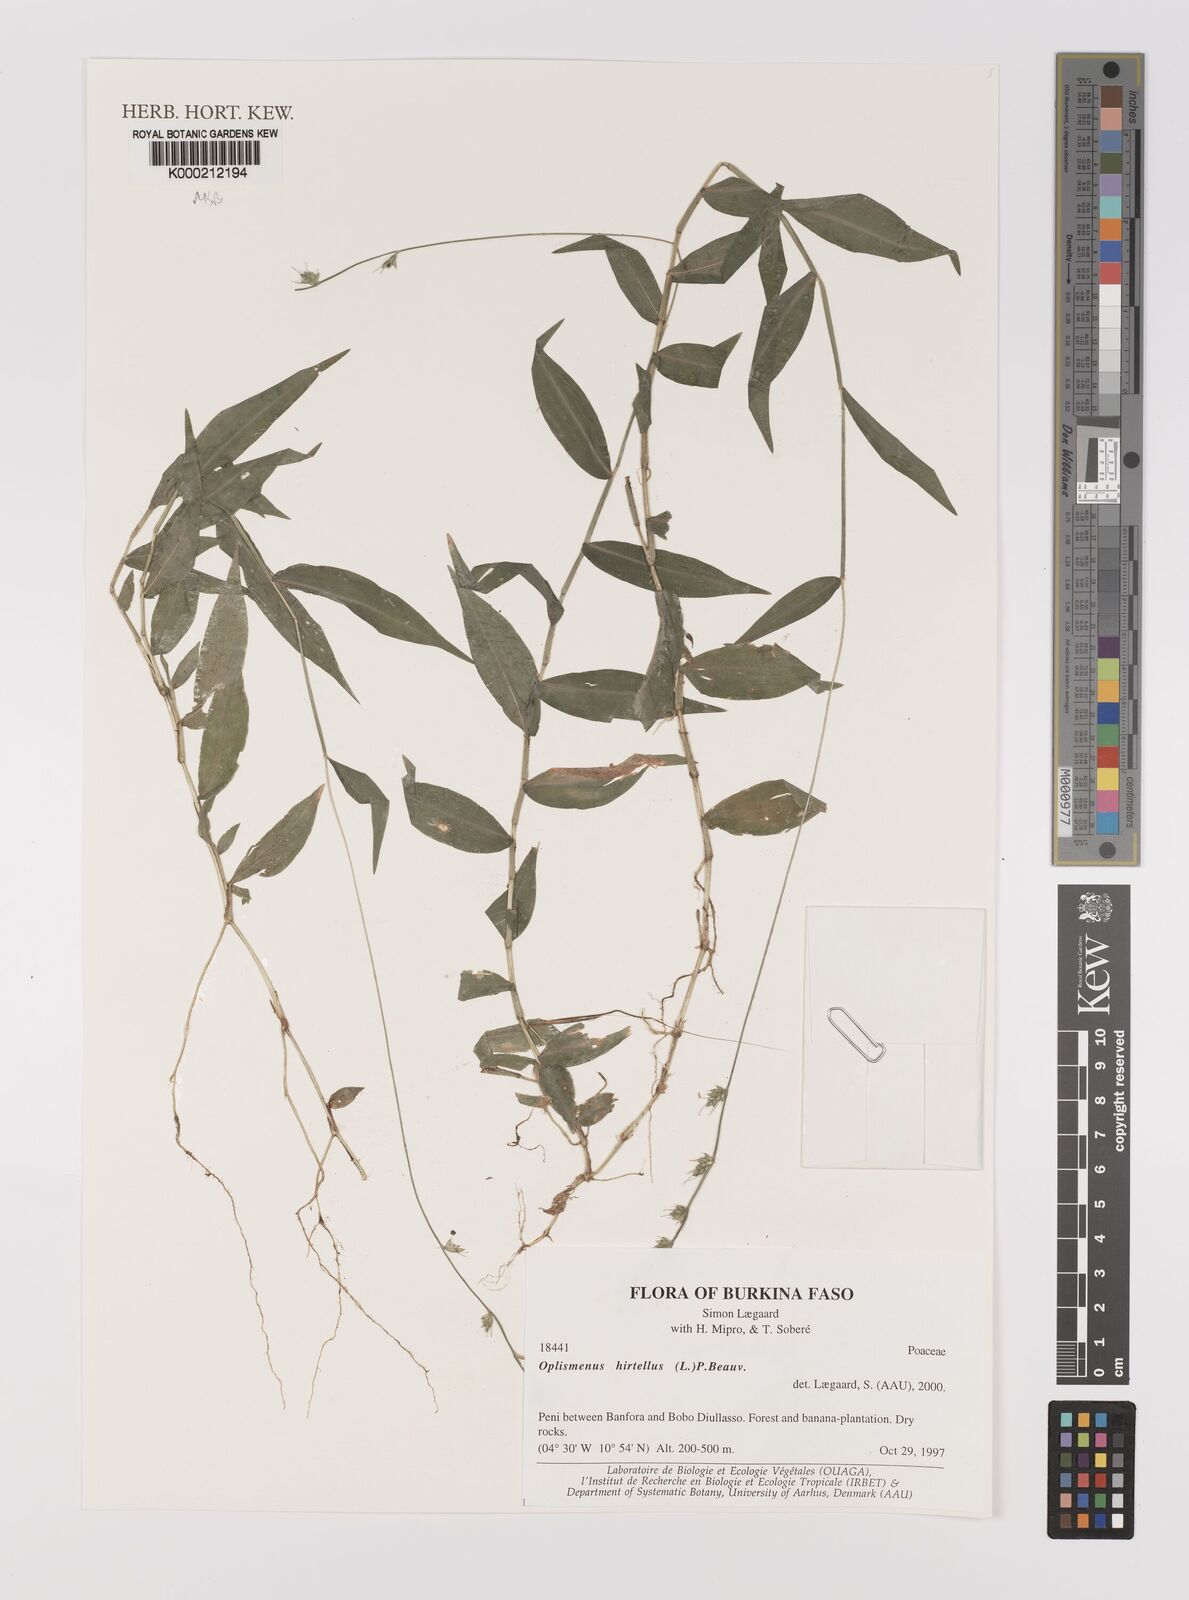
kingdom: Plantae
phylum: Tracheophyta
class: Liliopsida
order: Poales
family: Poaceae
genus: Oplismenus
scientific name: Oplismenus hirtellus
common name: Basketgrass
